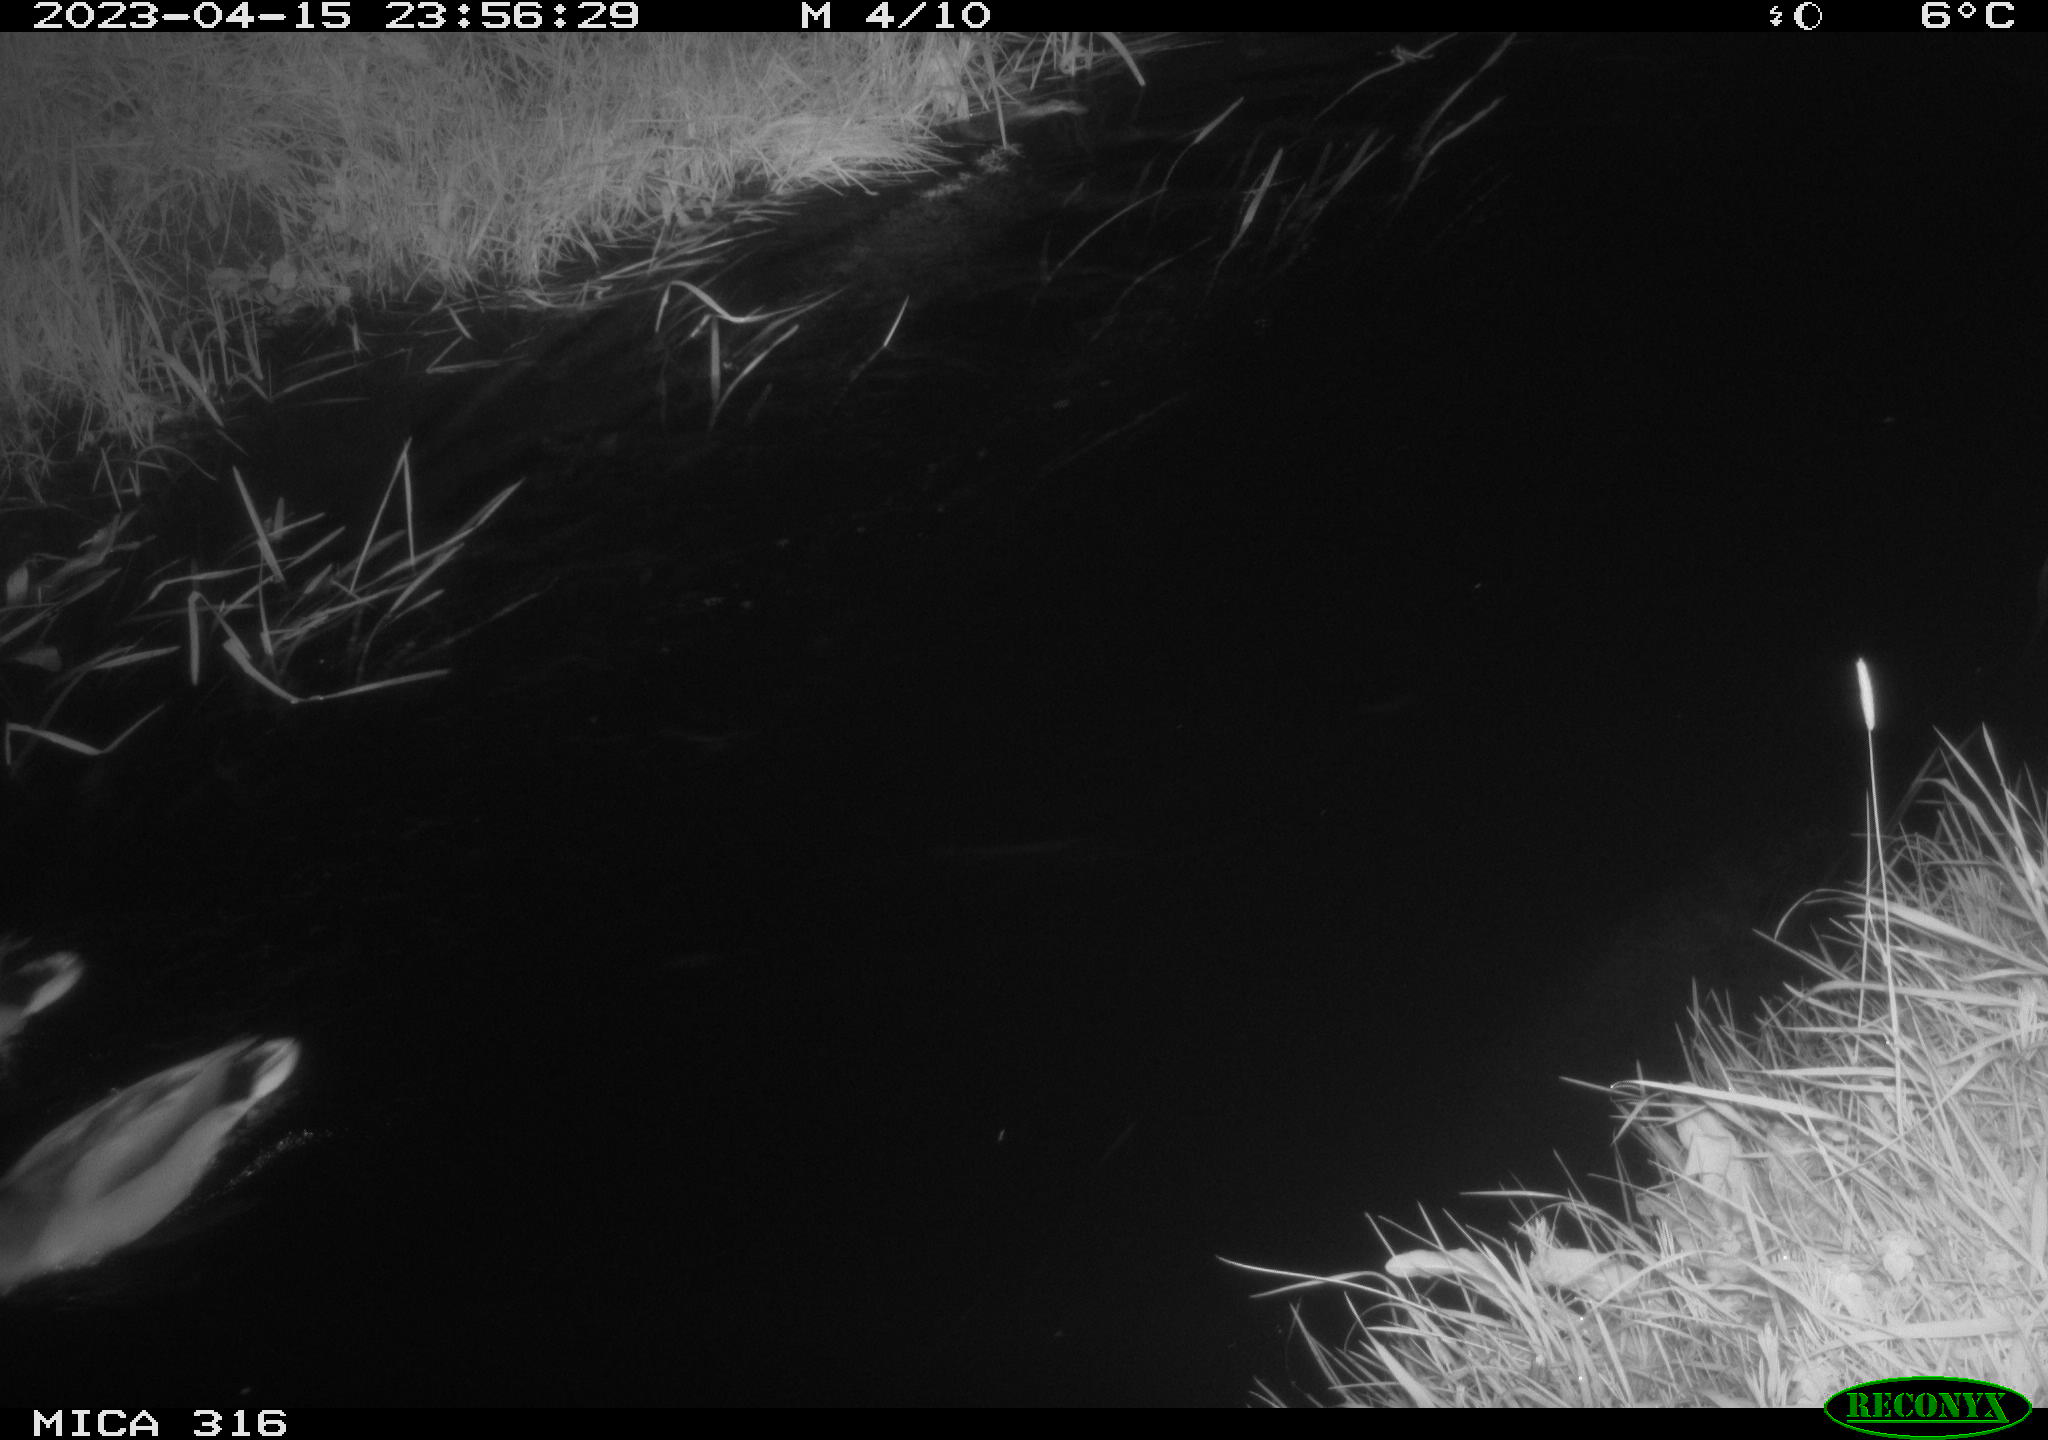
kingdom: Animalia
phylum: Chordata
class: Aves
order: Anseriformes
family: Anatidae
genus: Anas
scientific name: Anas
